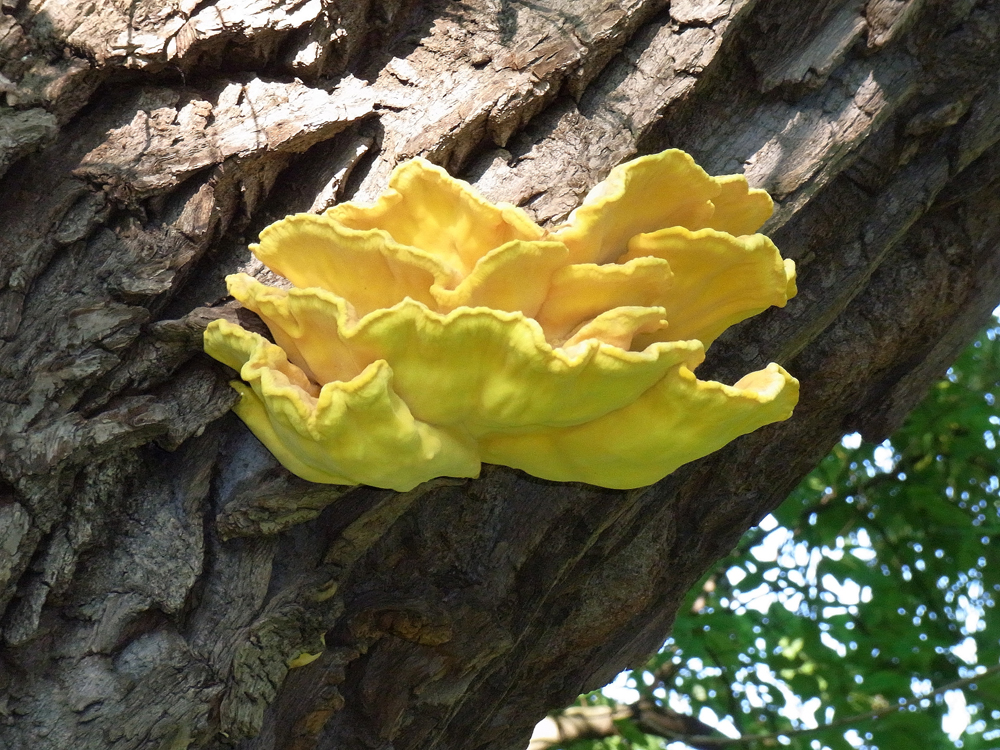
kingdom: Fungi
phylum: Basidiomycota
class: Agaricomycetes
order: Polyporales
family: Laetiporaceae
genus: Laetiporus
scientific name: Laetiporus sulphureus
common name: Chicken of the woods
